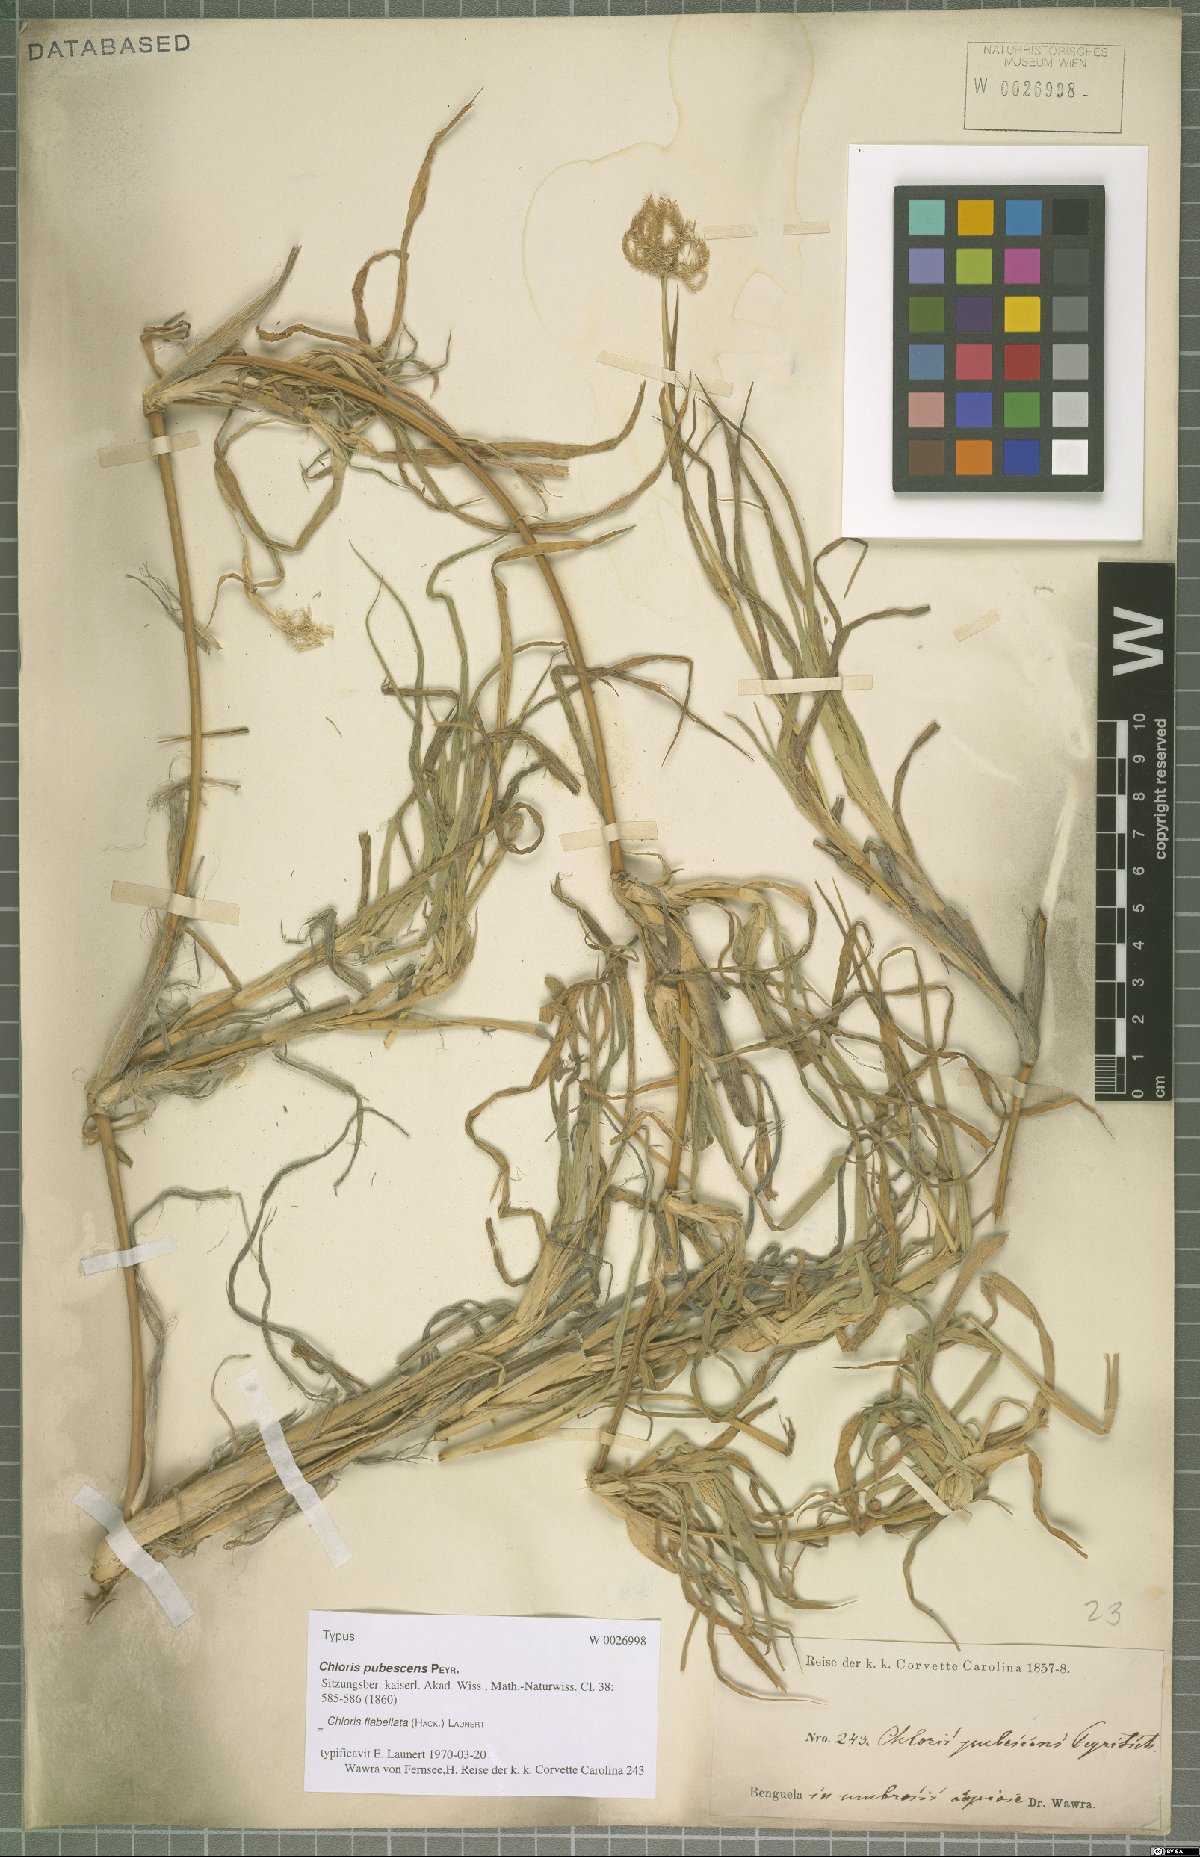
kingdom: Plantae
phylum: Tracheophyta
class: Liliopsida
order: Poales
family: Poaceae
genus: Chloris
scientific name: Chloris flabellata
